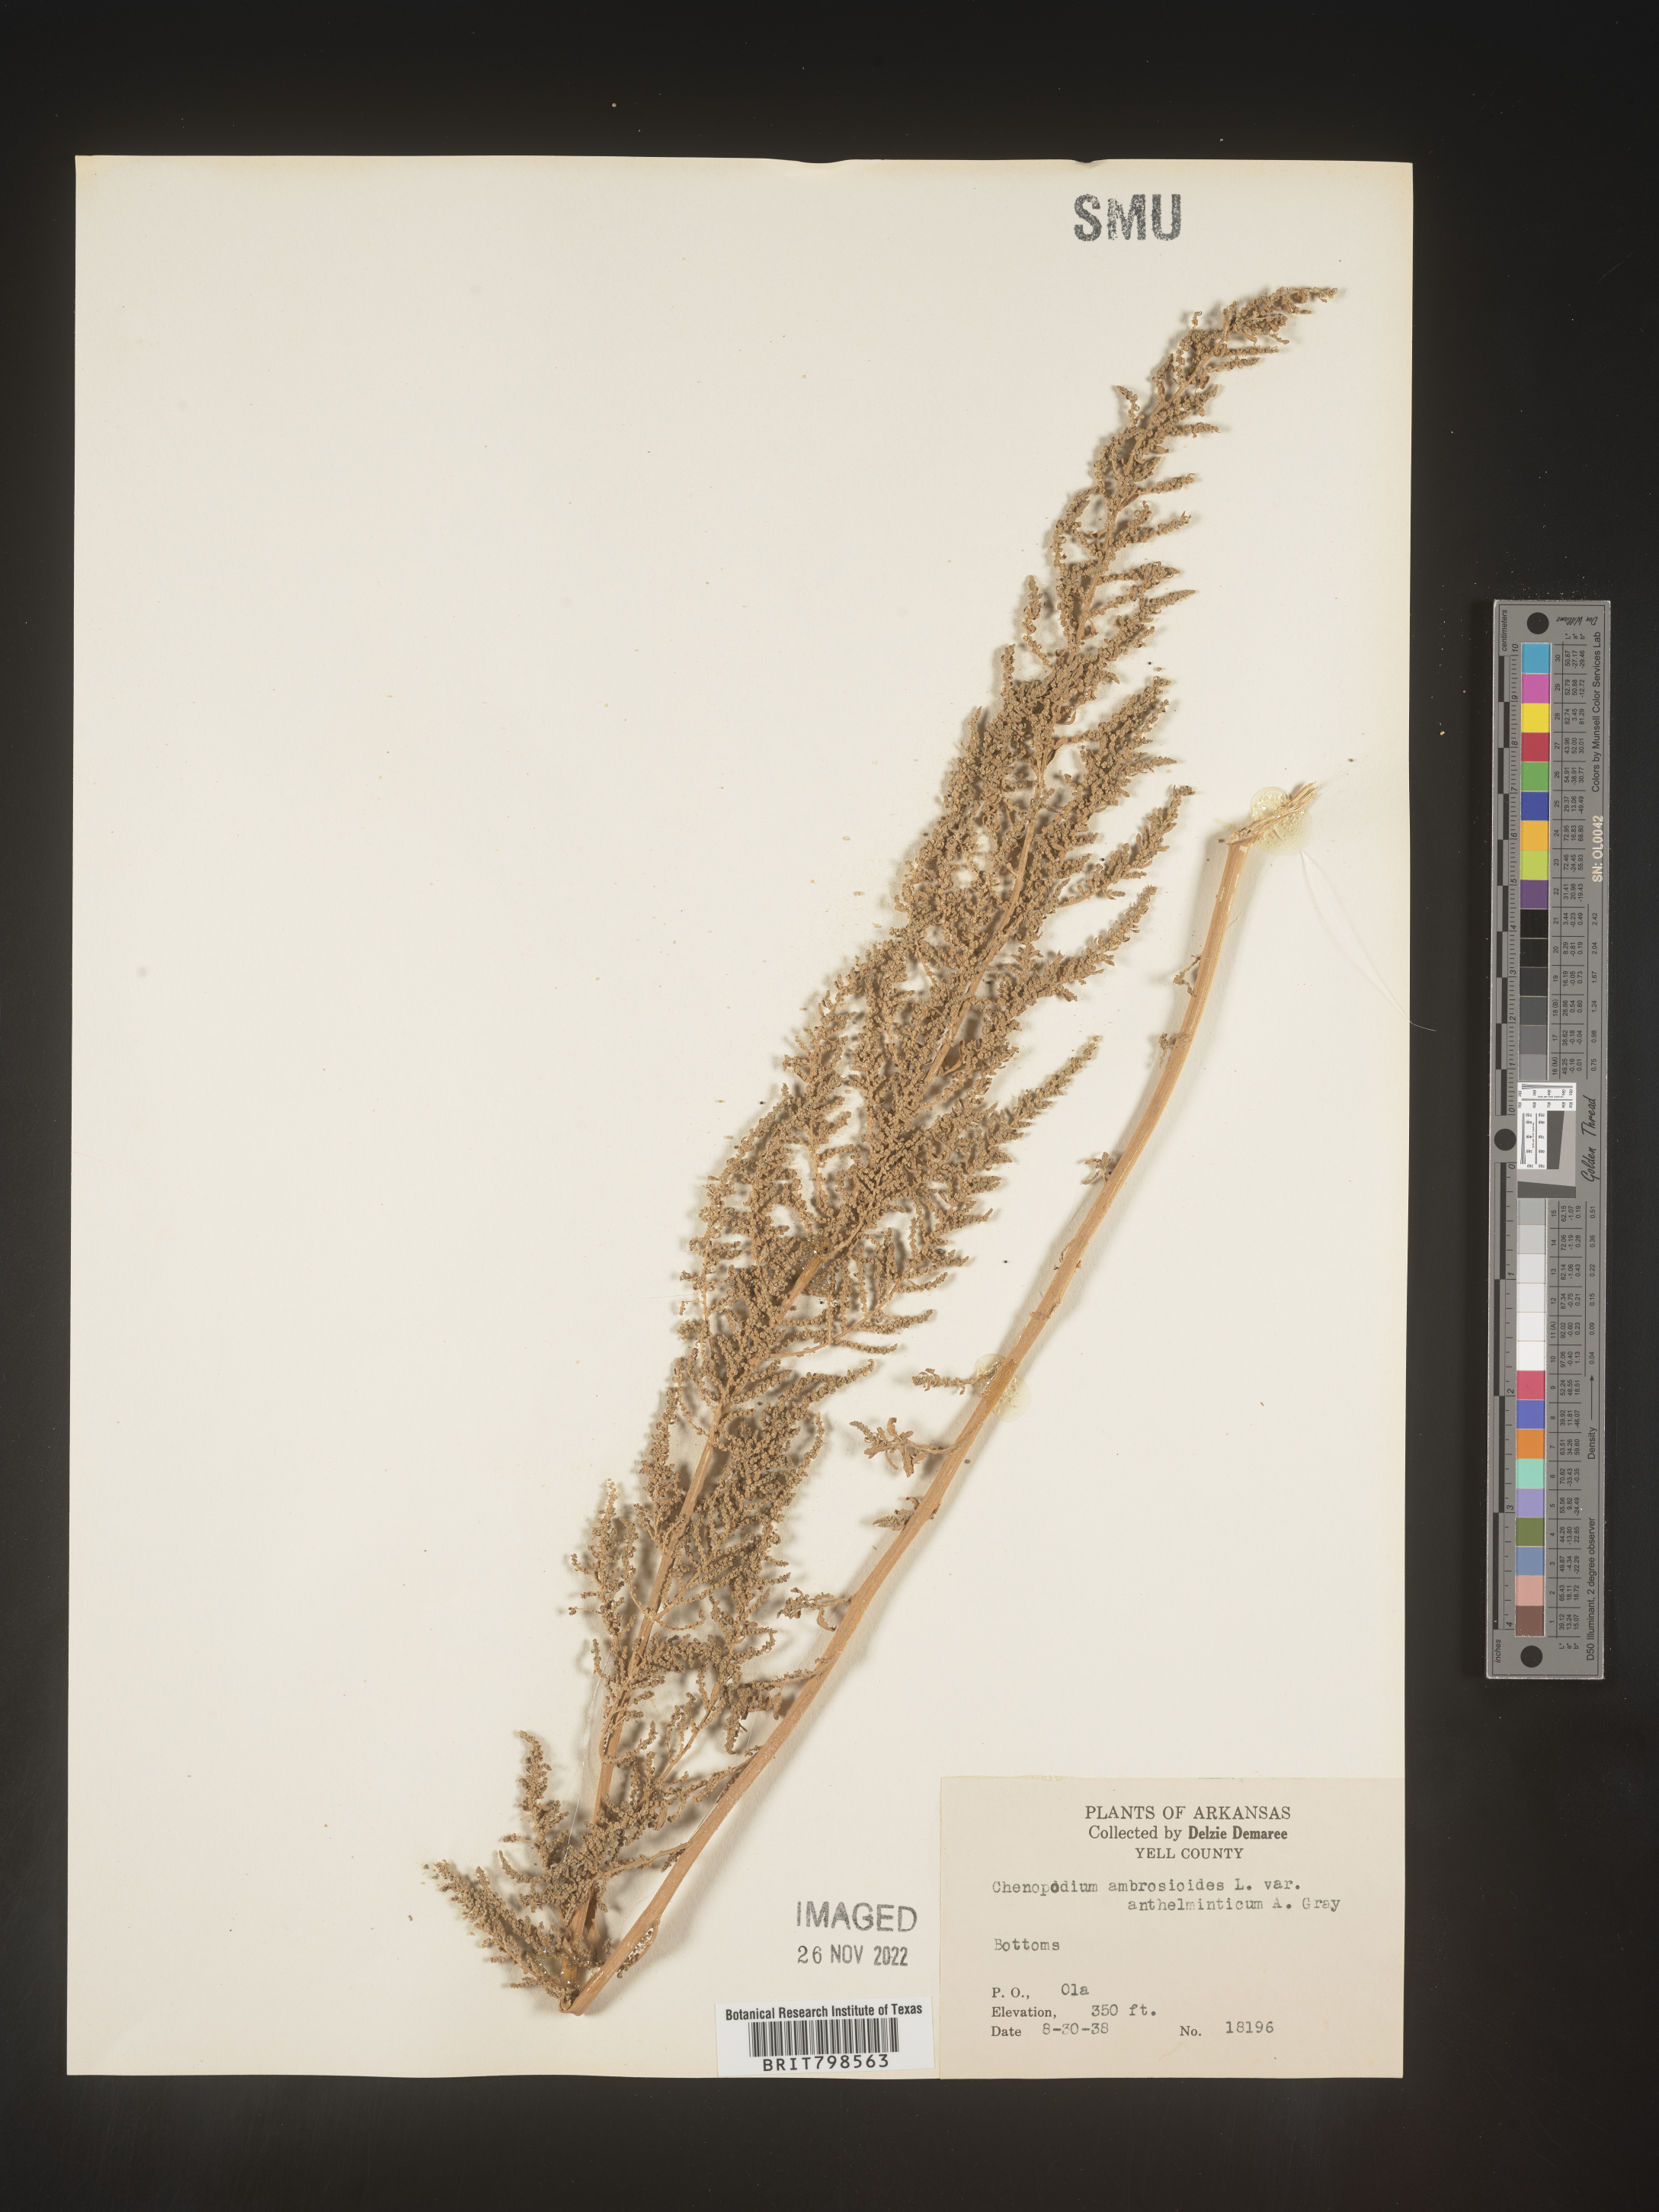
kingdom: Plantae
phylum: Tracheophyta
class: Magnoliopsida
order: Caryophyllales
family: Amaranthaceae
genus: Dysphania
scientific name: Dysphania ambrosioides
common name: Wormseed
